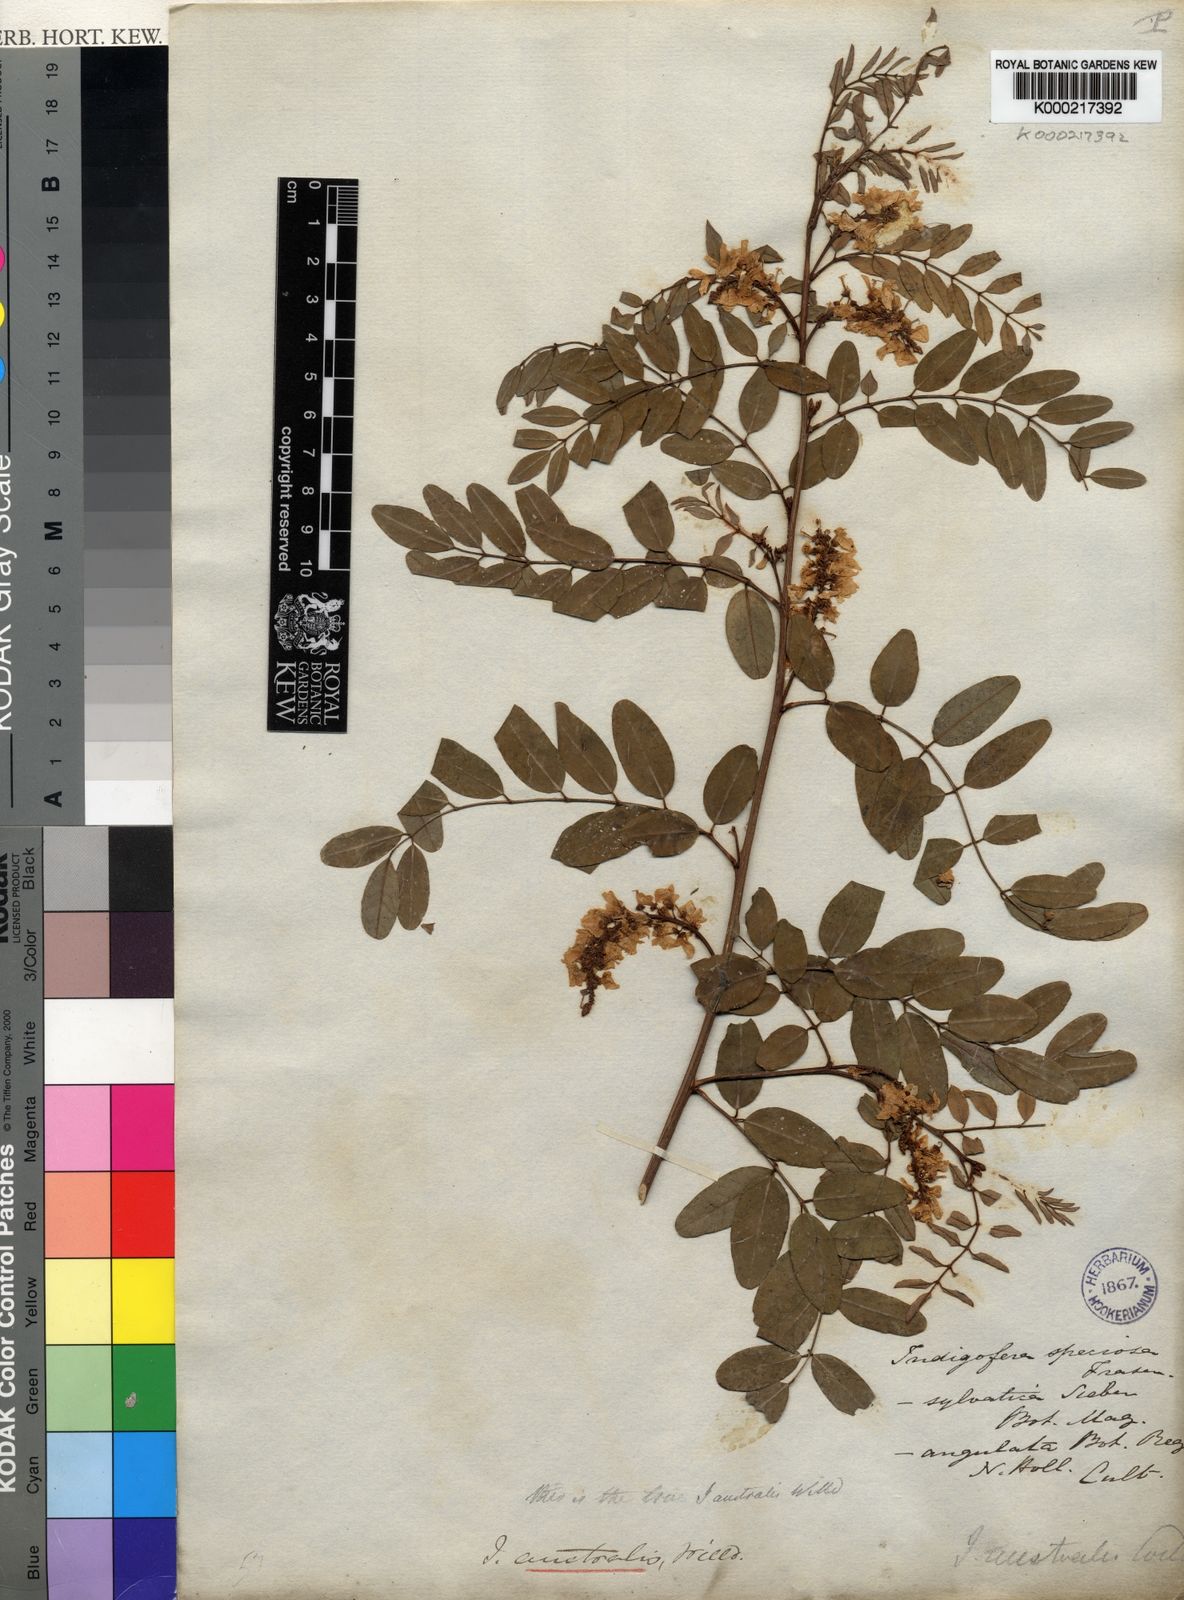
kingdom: Plantae
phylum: Tracheophyta
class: Magnoliopsida
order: Fabales
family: Fabaceae
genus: Indigofera
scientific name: Indigofera australis
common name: Australian indigo
